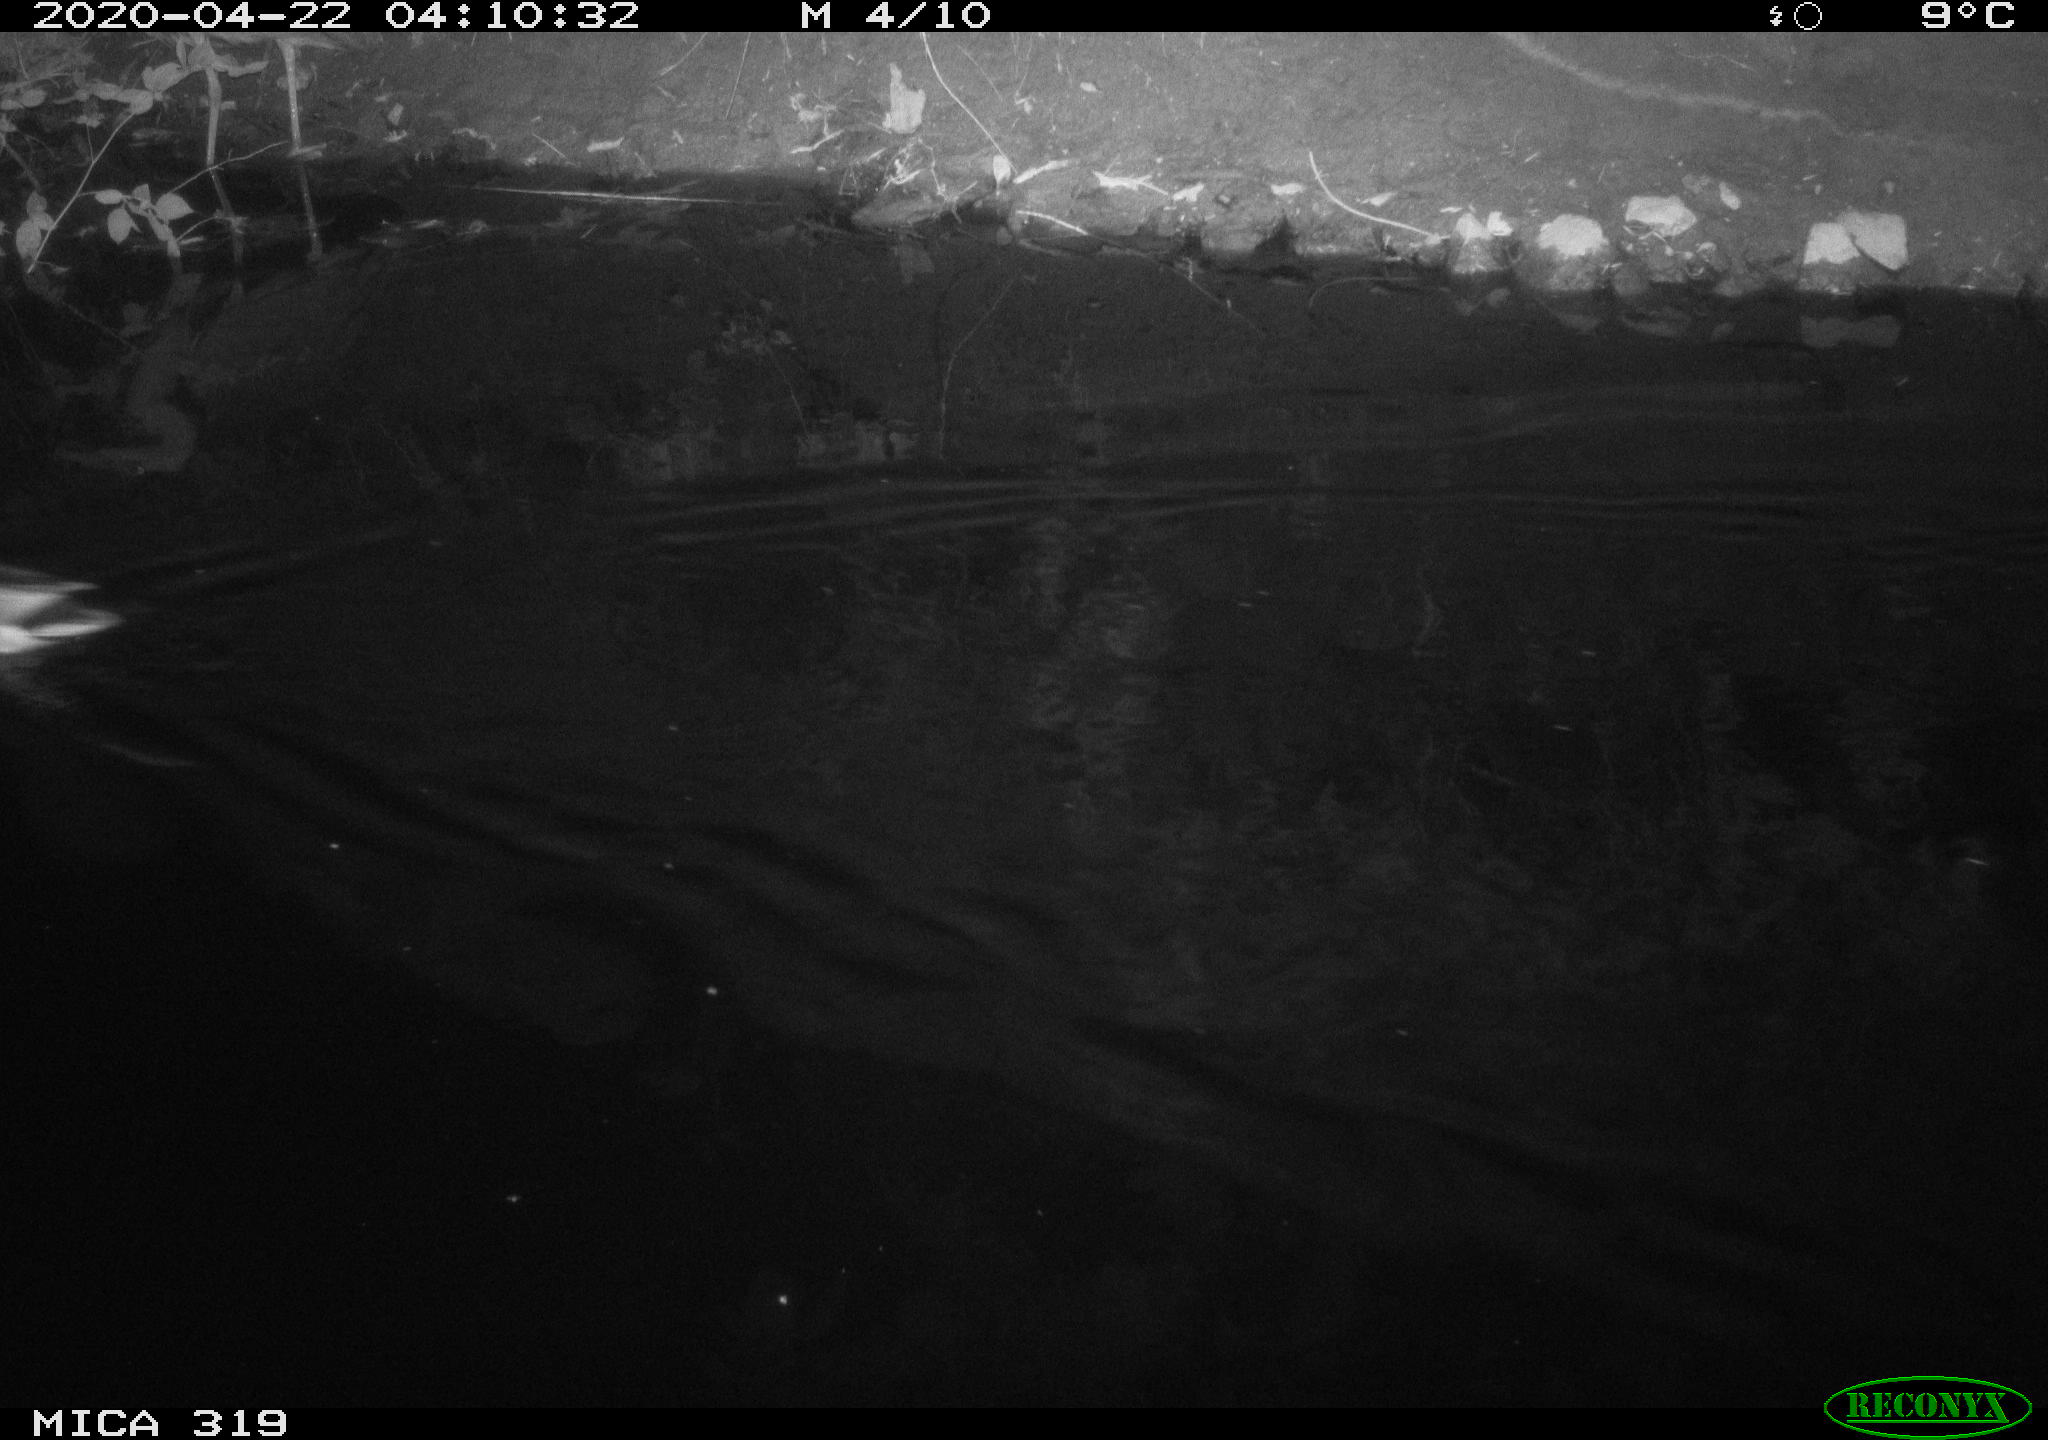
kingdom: Animalia
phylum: Chordata
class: Aves
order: Anseriformes
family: Anatidae
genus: Anas
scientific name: Anas platyrhynchos
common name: Mallard
